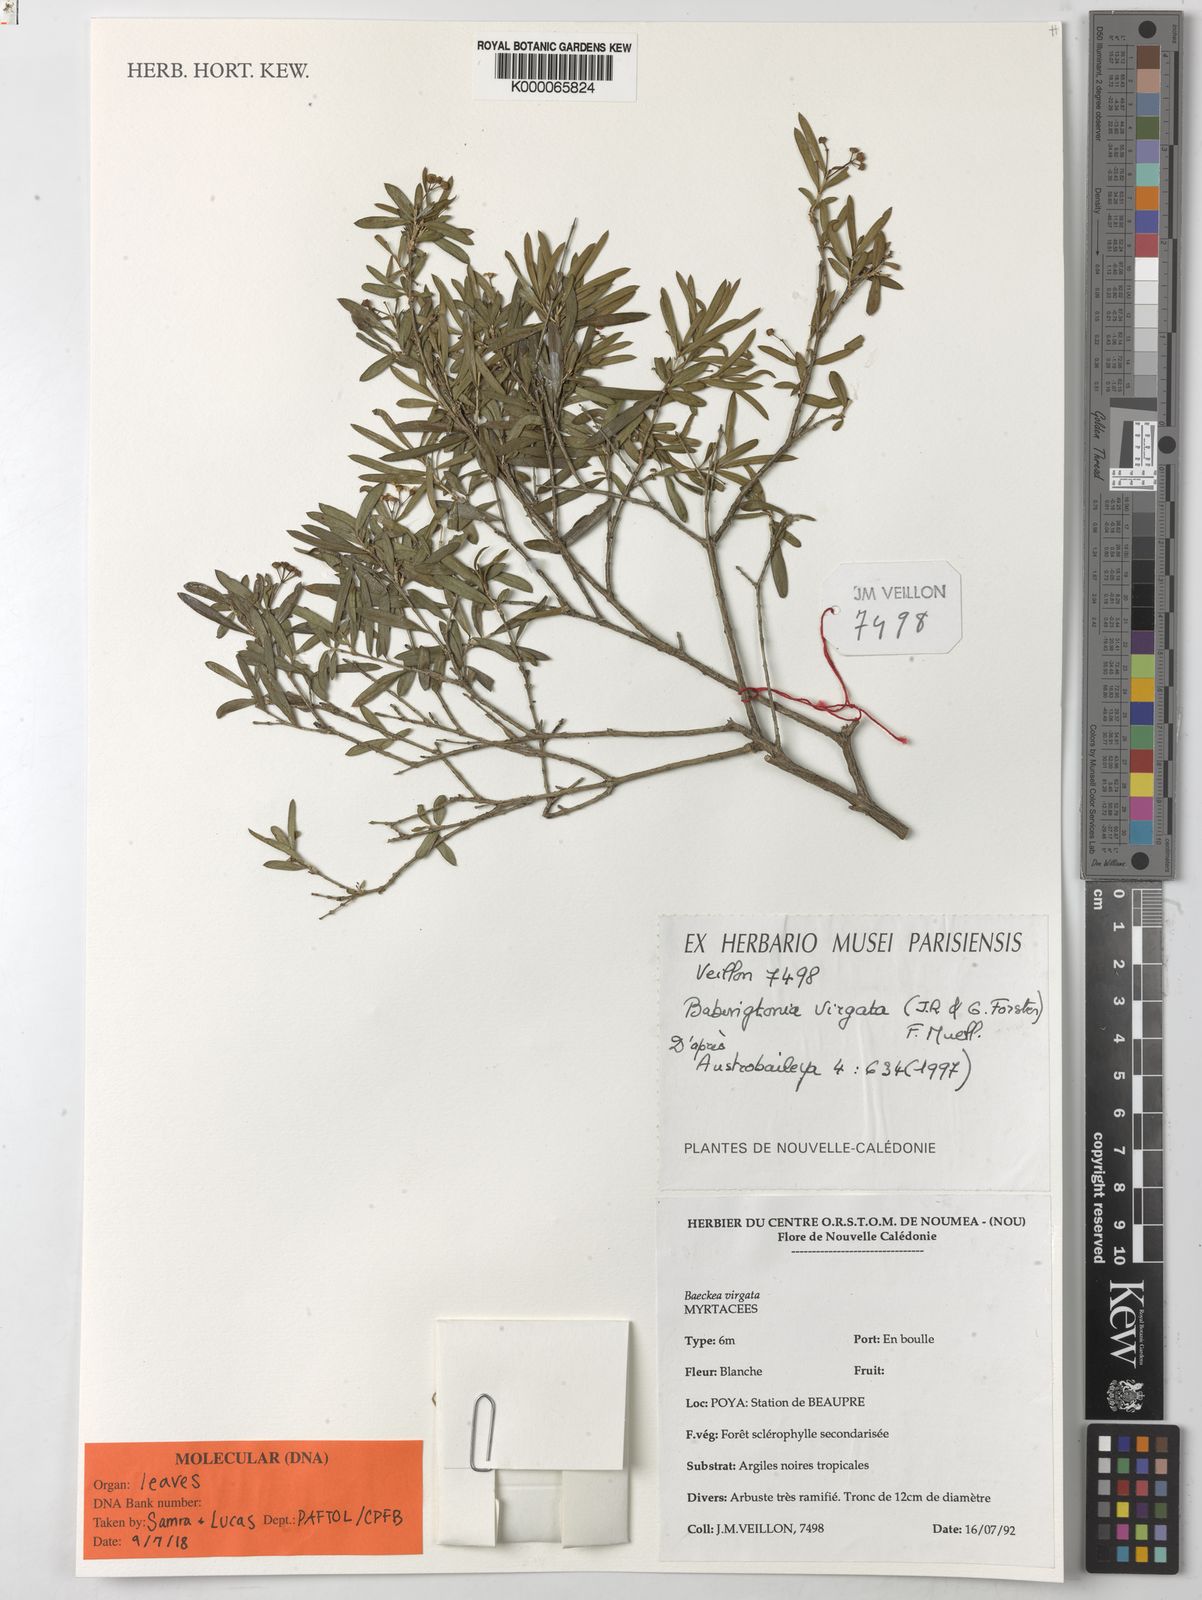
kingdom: Plantae
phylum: Tracheophyta
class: Magnoliopsida
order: Myrtales
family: Myrtaceae
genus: Sannantha
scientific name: Sannantha virgata
